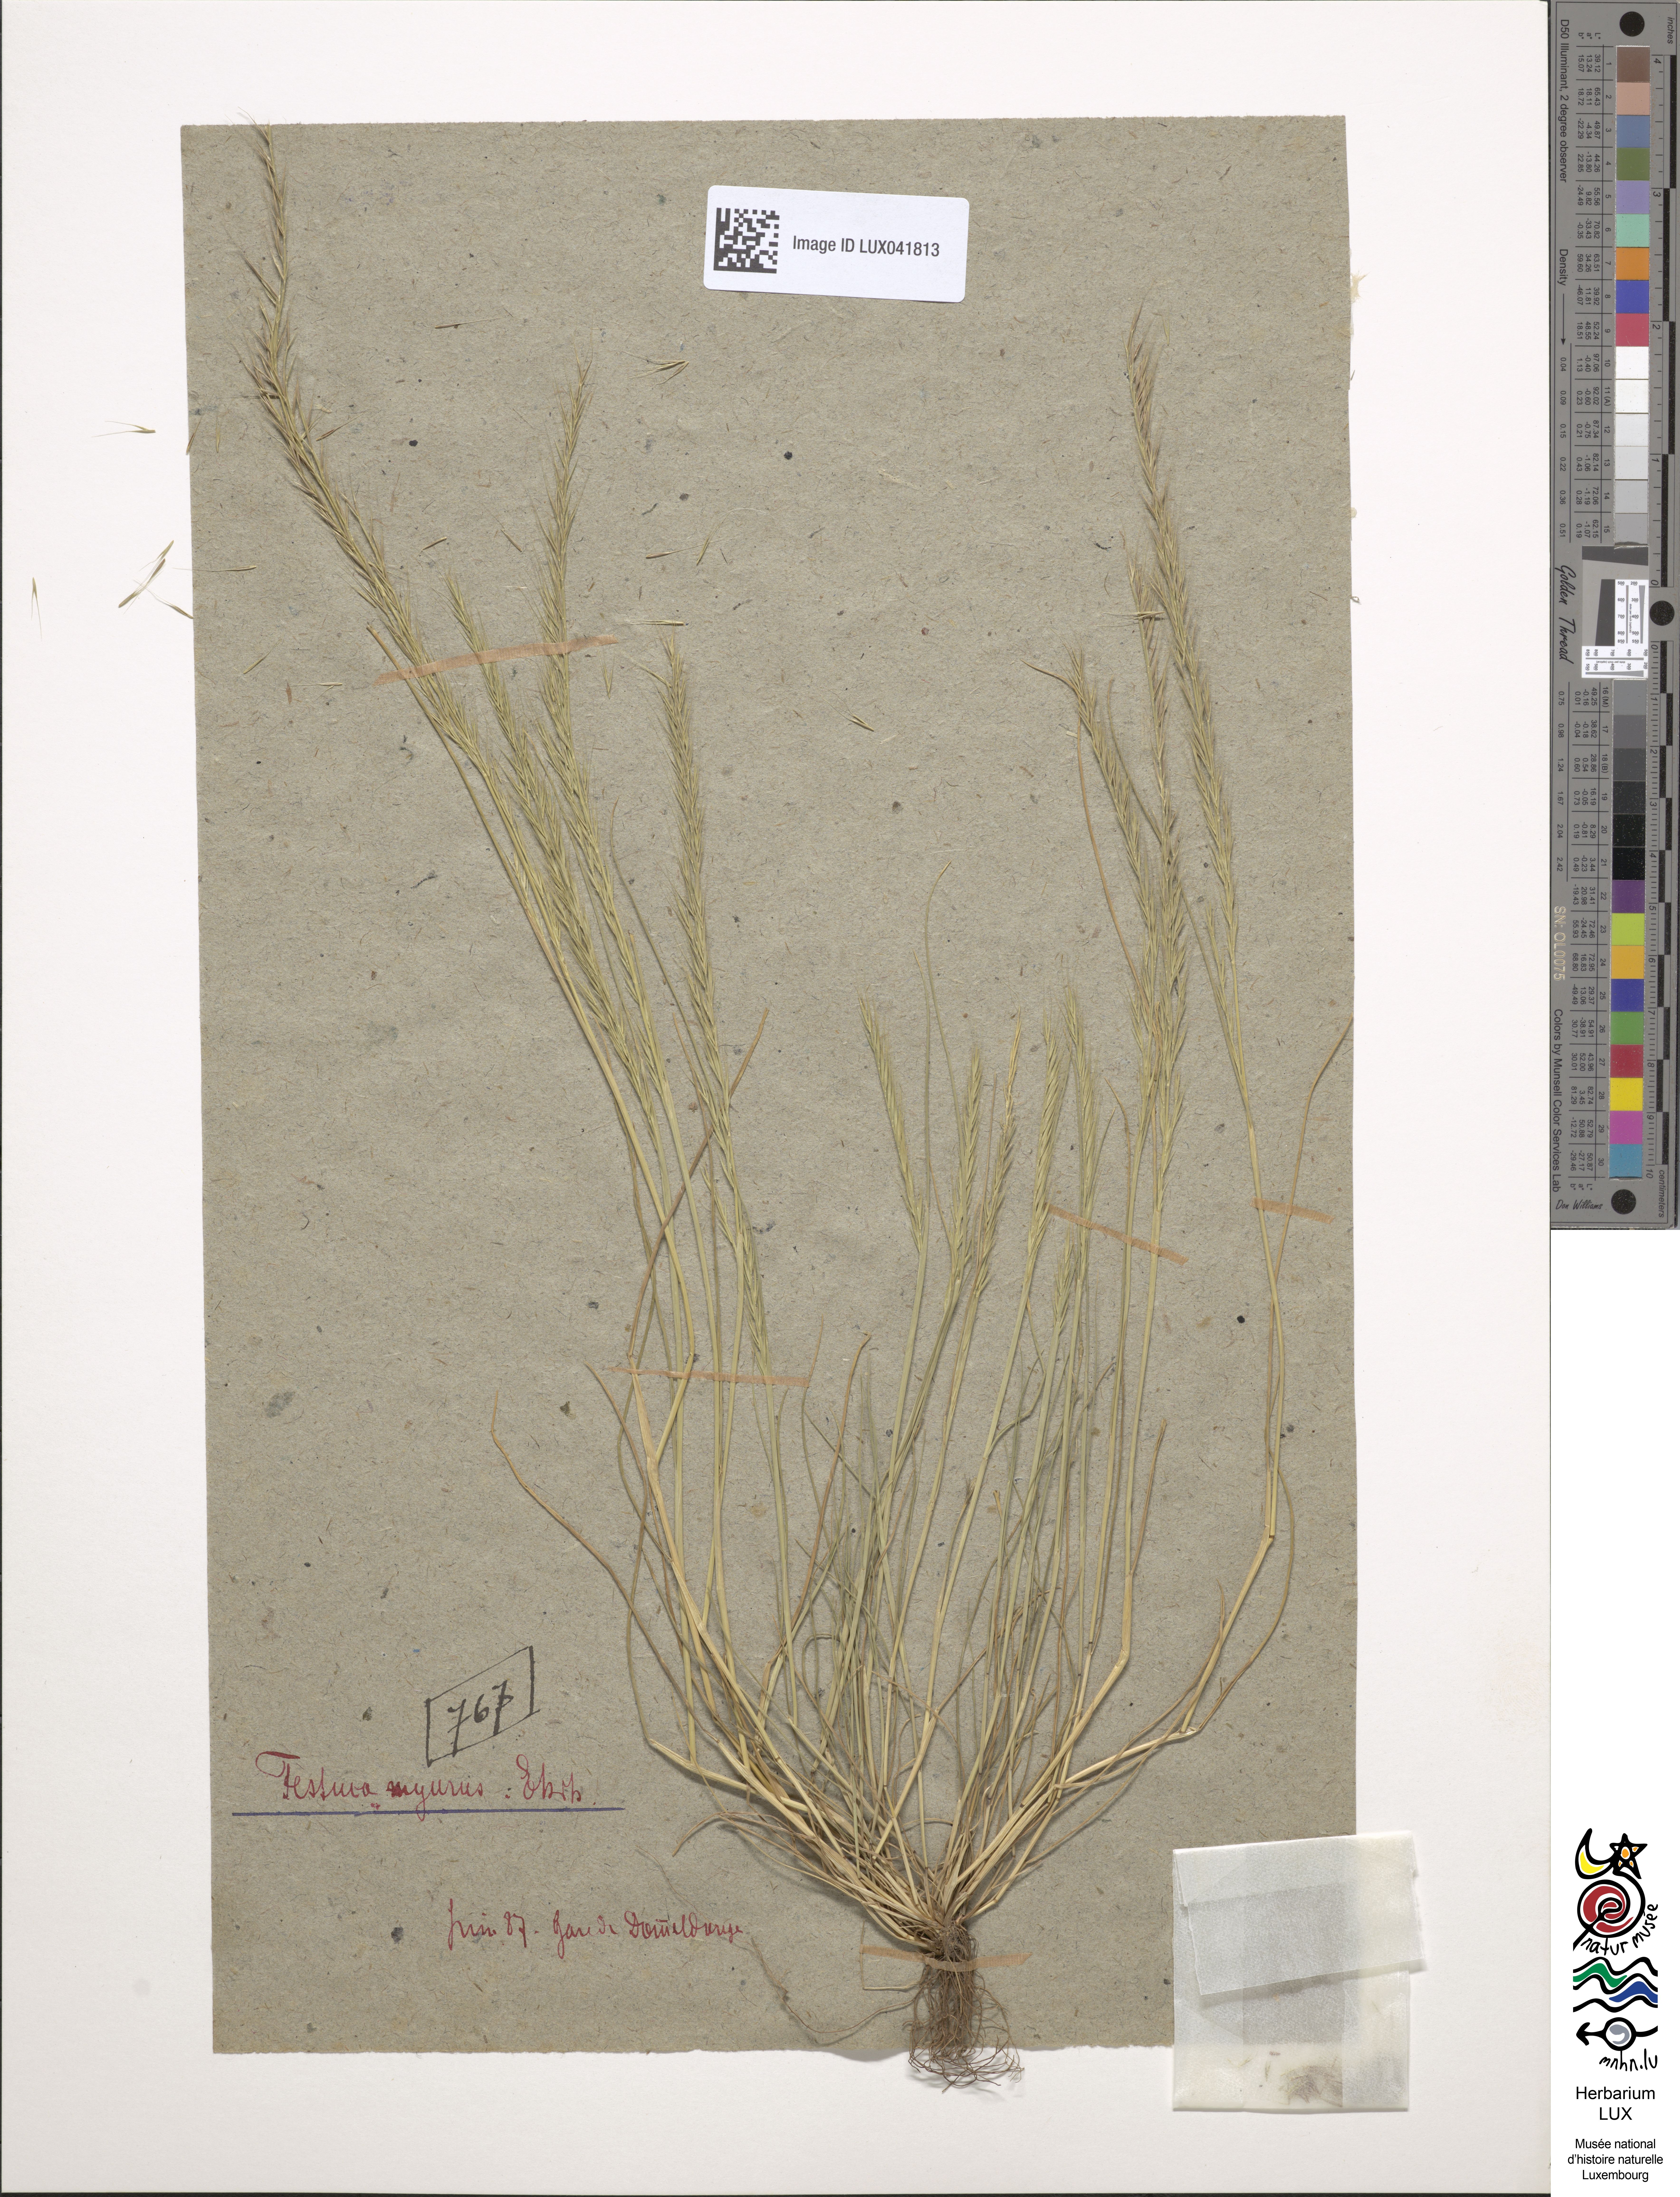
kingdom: Plantae
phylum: Tracheophyta
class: Liliopsida
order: Poales
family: Poaceae
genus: Festuca
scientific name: Festuca myuros
